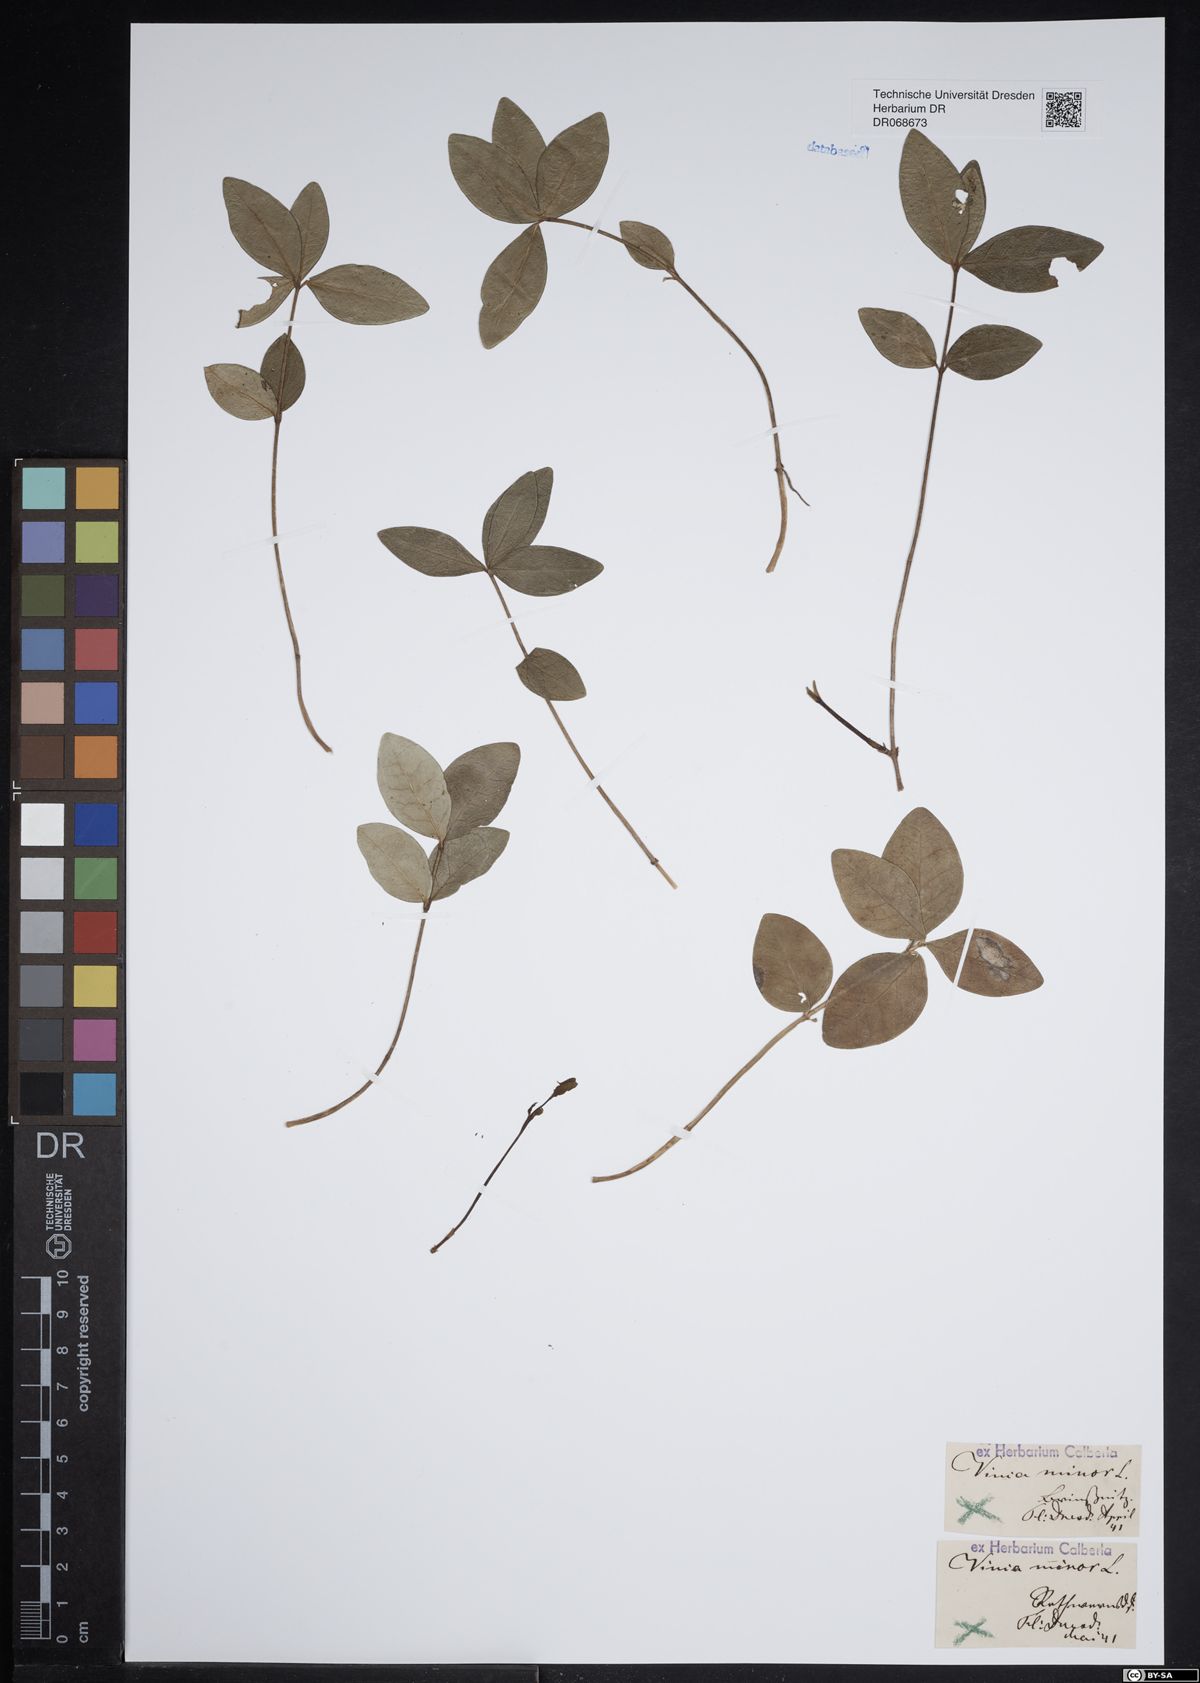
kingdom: Plantae
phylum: Tracheophyta
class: Magnoliopsida
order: Gentianales
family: Apocynaceae
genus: Vinca
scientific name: Vinca minor
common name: Lesser periwinkle
